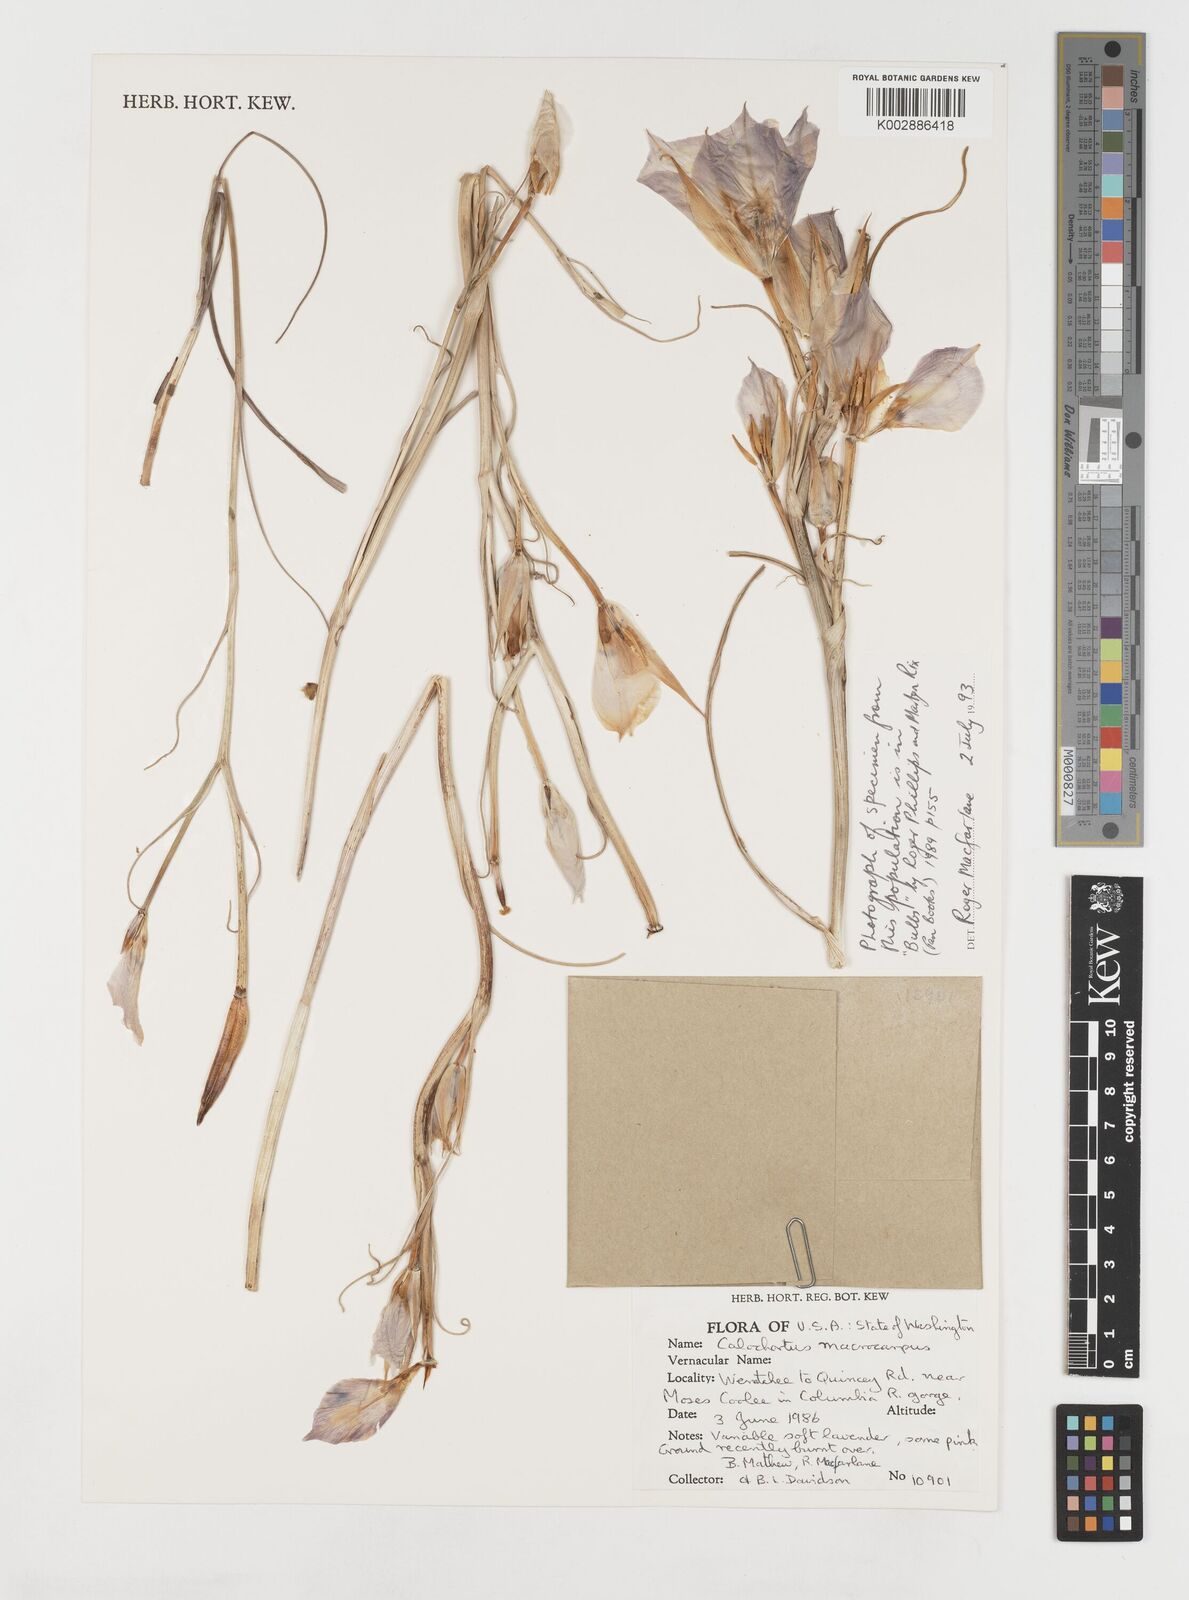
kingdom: Plantae
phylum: Tracheophyta
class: Liliopsida
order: Liliales
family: Liliaceae
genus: Calochortus
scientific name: Calochortus macrocarpus
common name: Green-band mariposa lily
